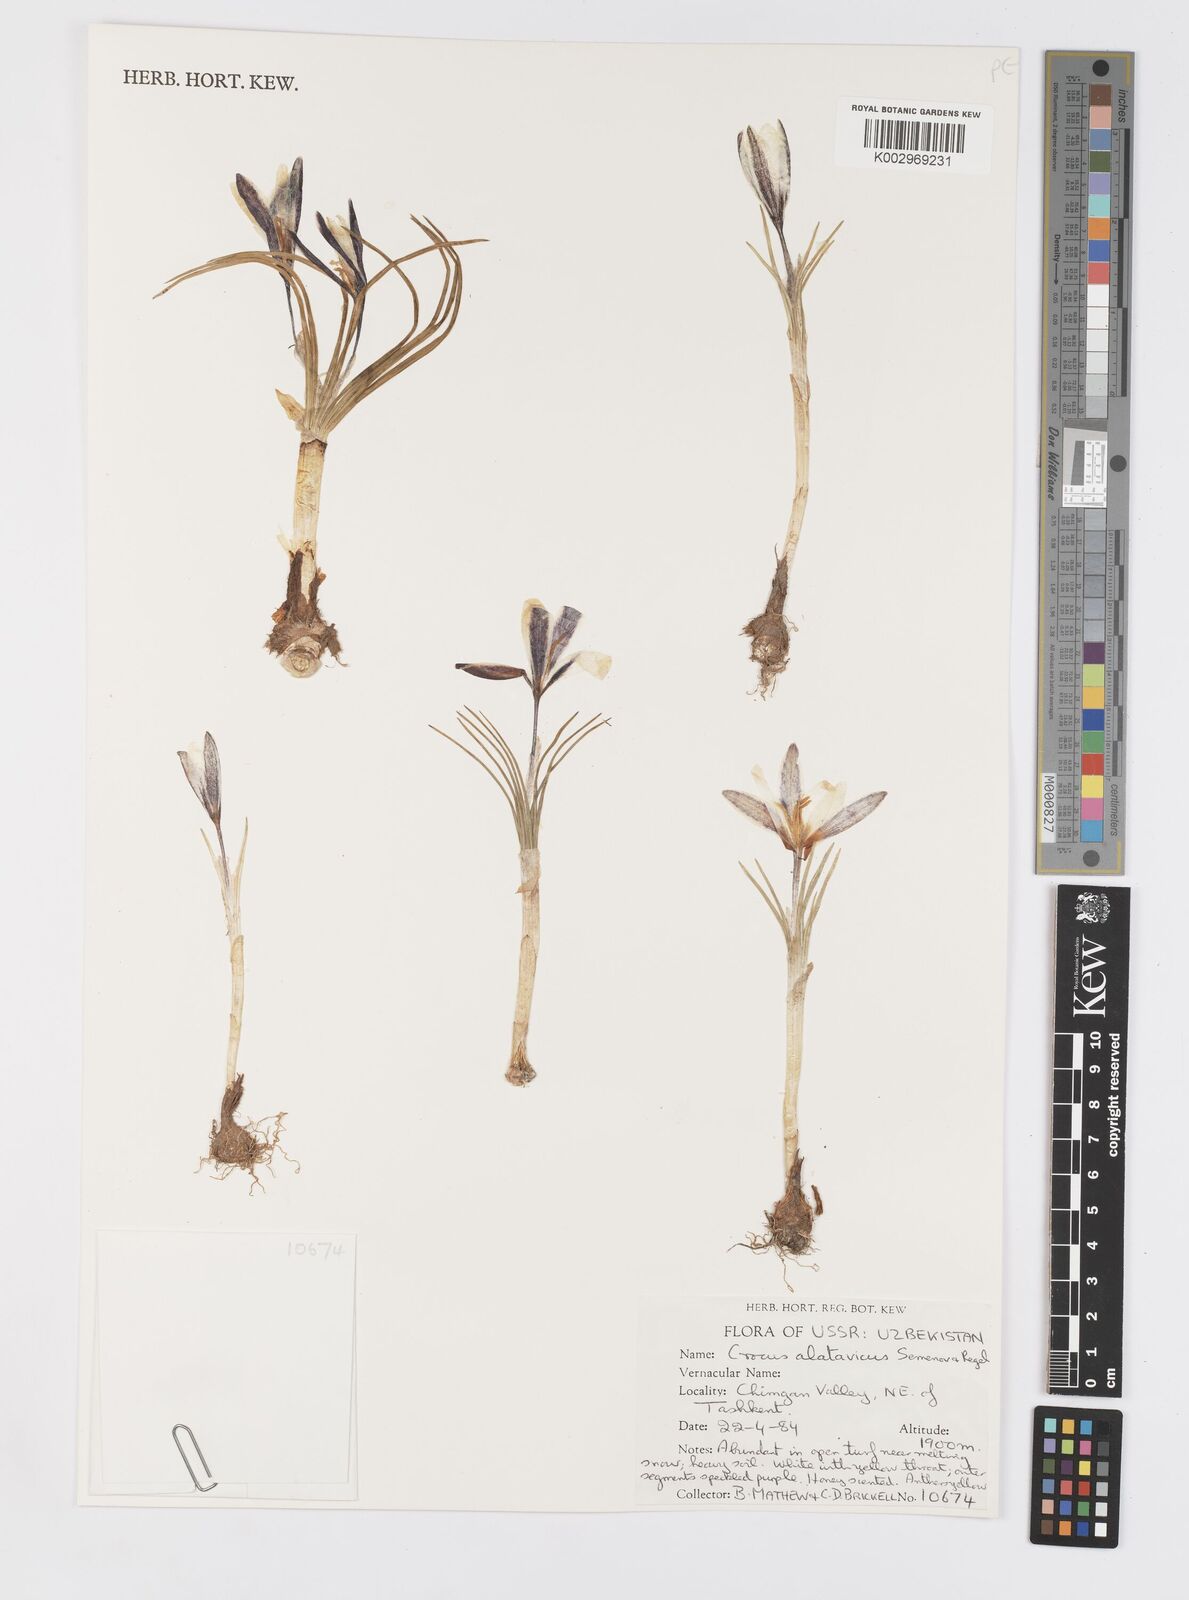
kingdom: Plantae
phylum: Tracheophyta
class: Liliopsida
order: Asparagales
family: Iridaceae
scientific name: Iridaceae
